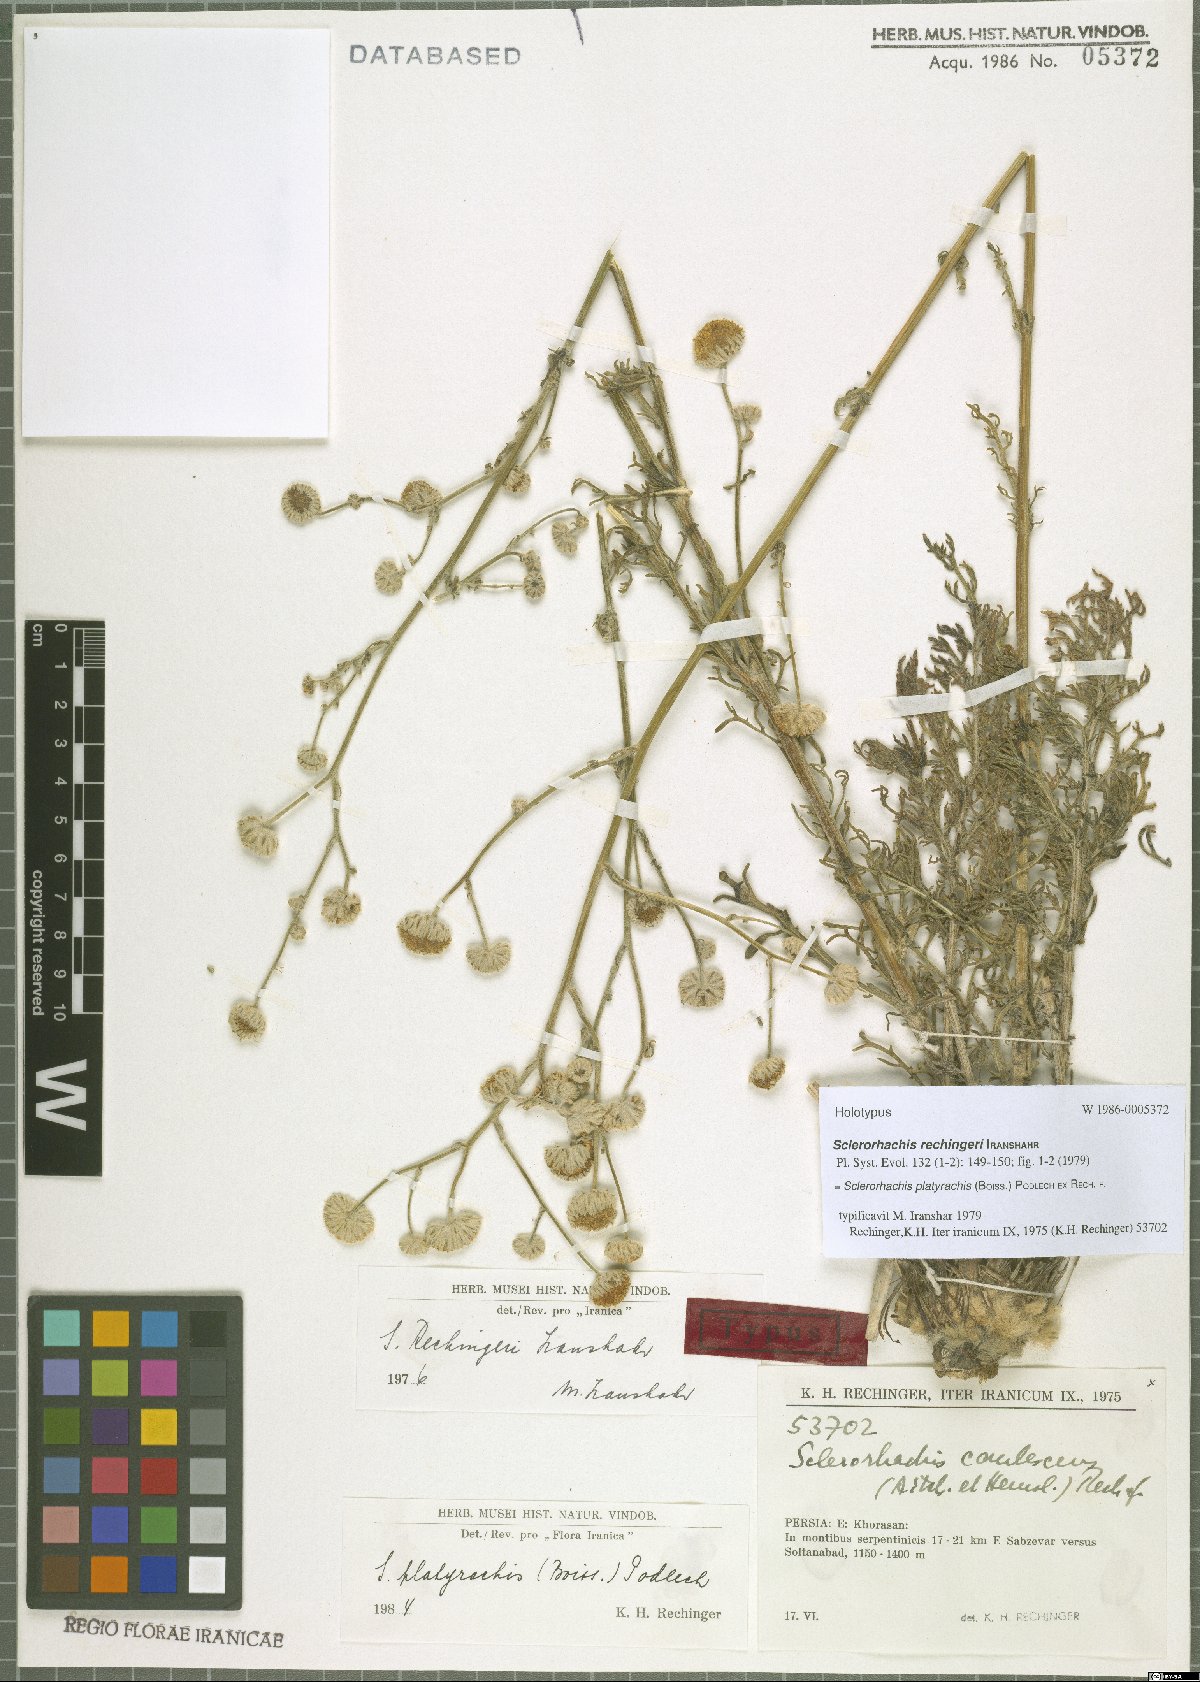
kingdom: Plantae
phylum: Tracheophyta
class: Magnoliopsida
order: Asterales
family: Asteraceae
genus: Sclerorhachis
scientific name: Sclerorhachis platyrachis
